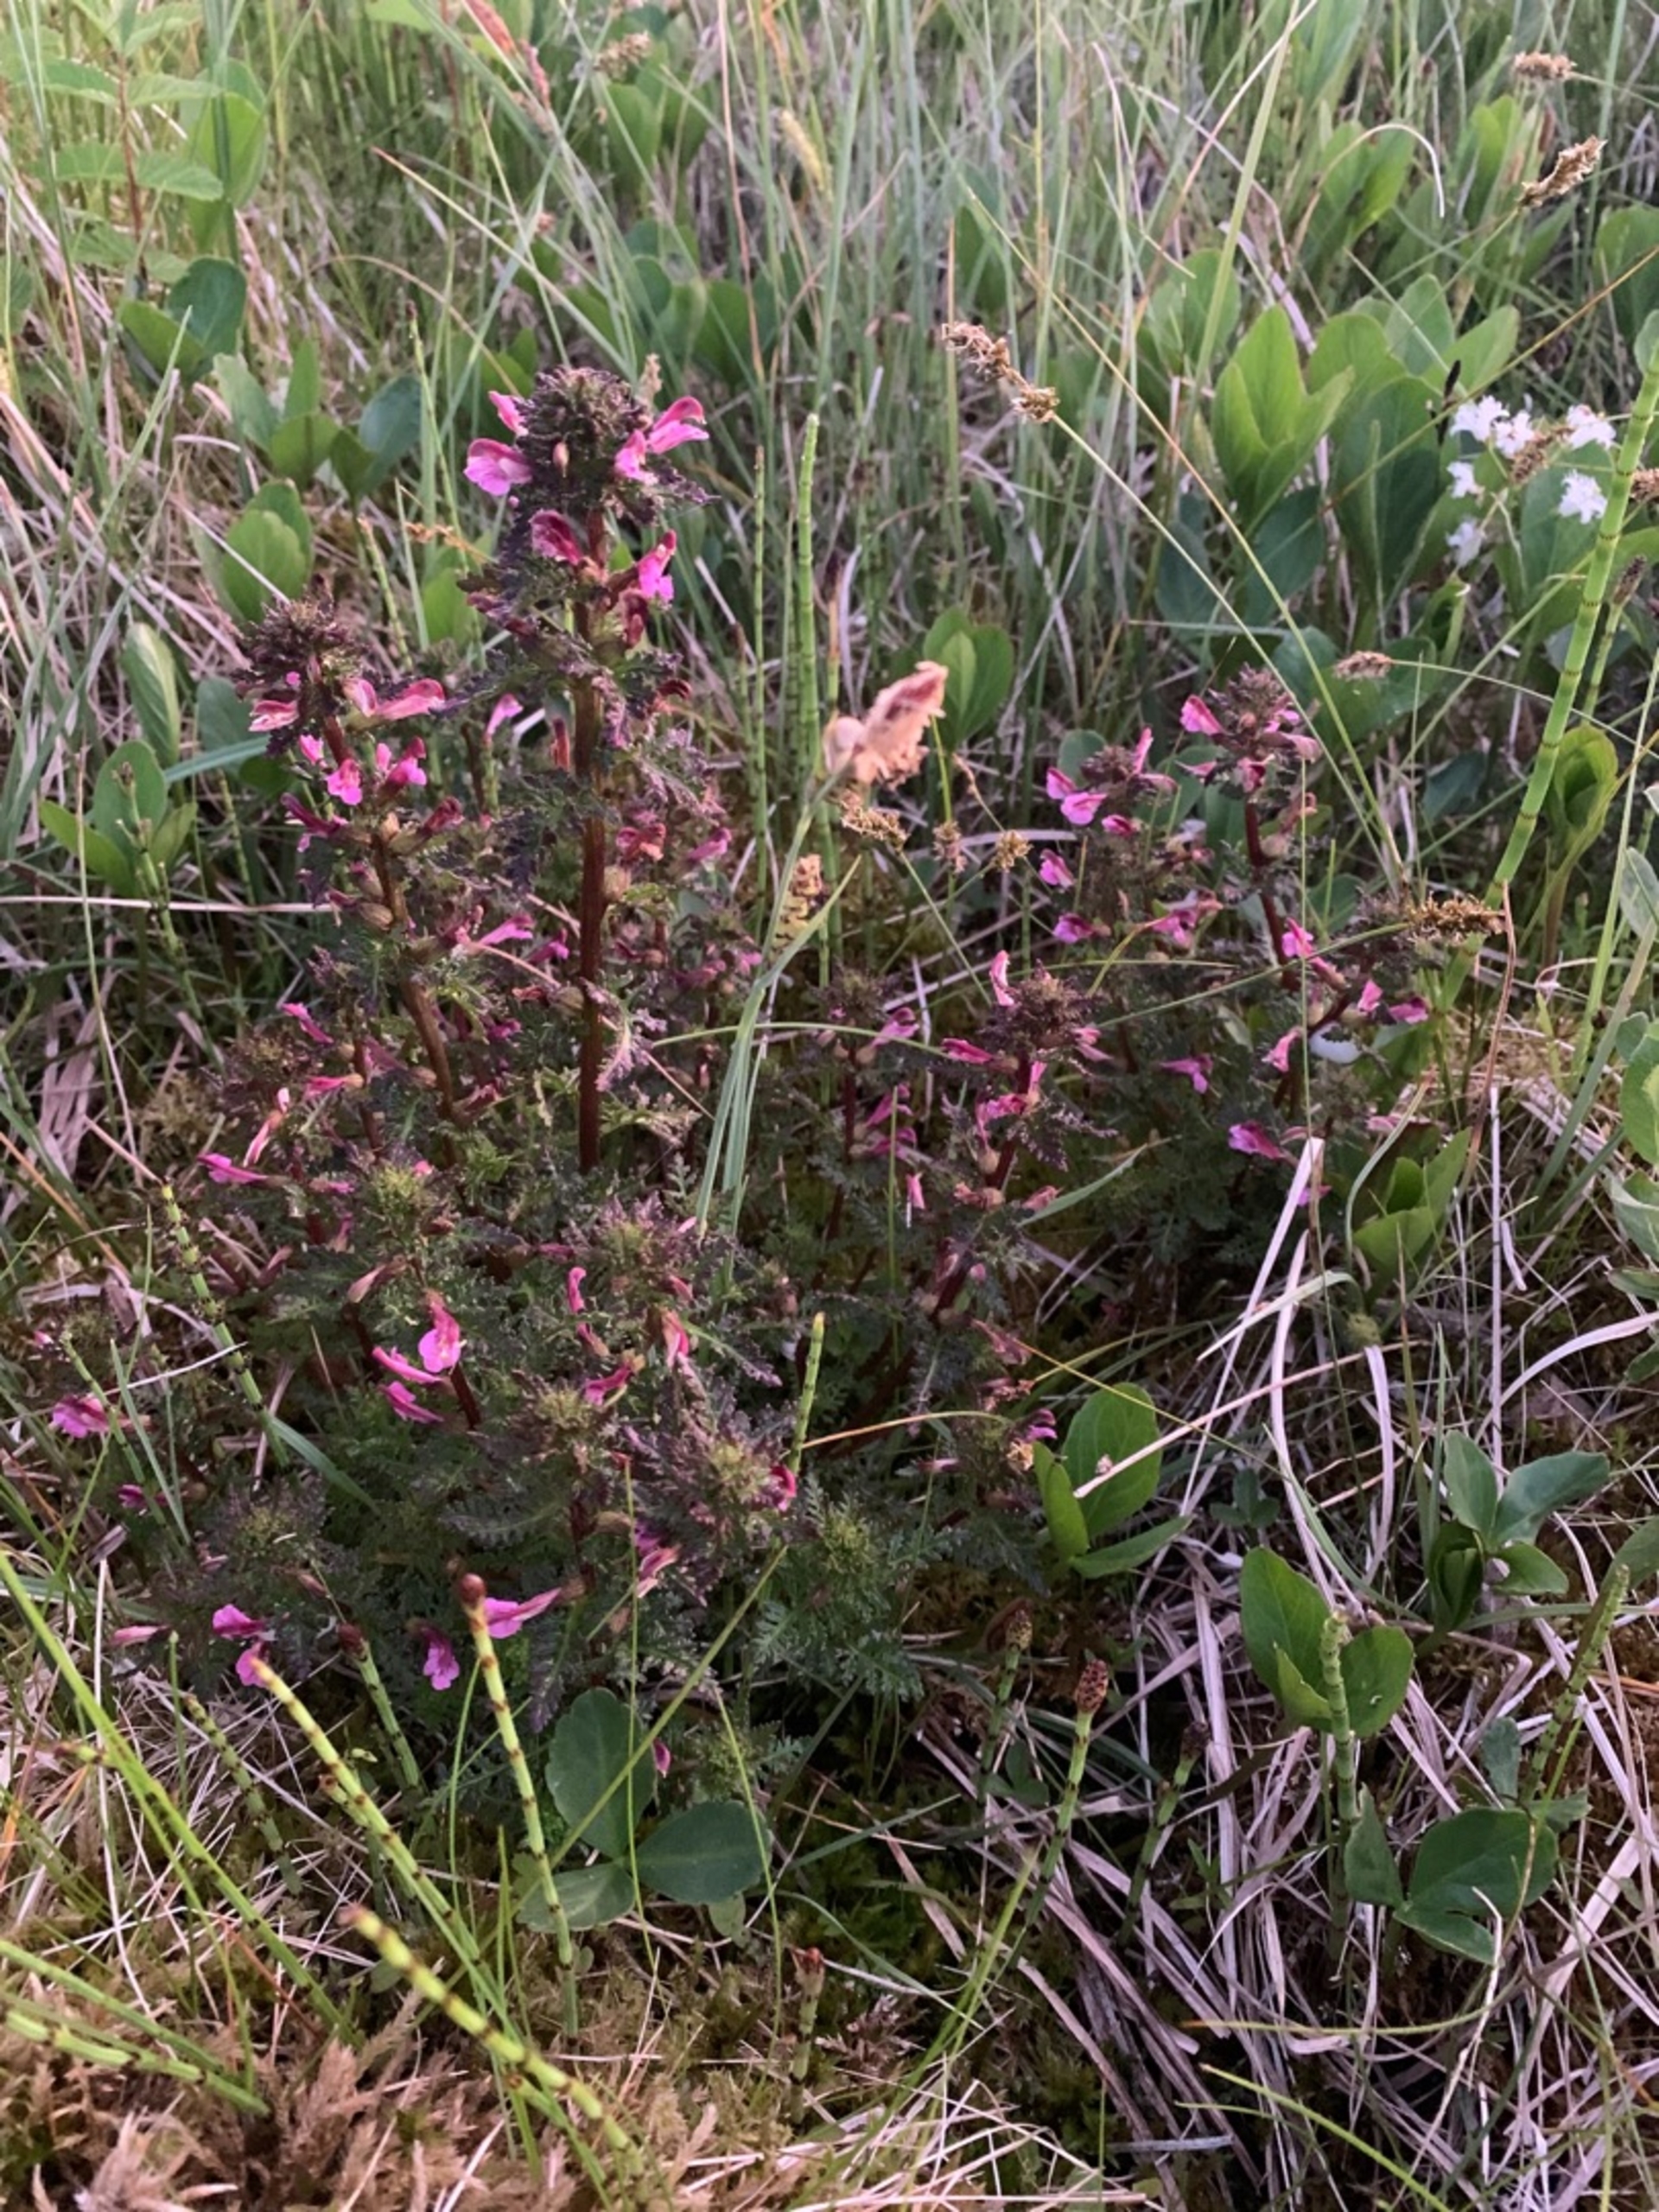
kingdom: Plantae
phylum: Tracheophyta
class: Magnoliopsida
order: Lamiales
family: Orobanchaceae
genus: Pedicularis
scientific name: Pedicularis palustris
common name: Eng-troldurt
